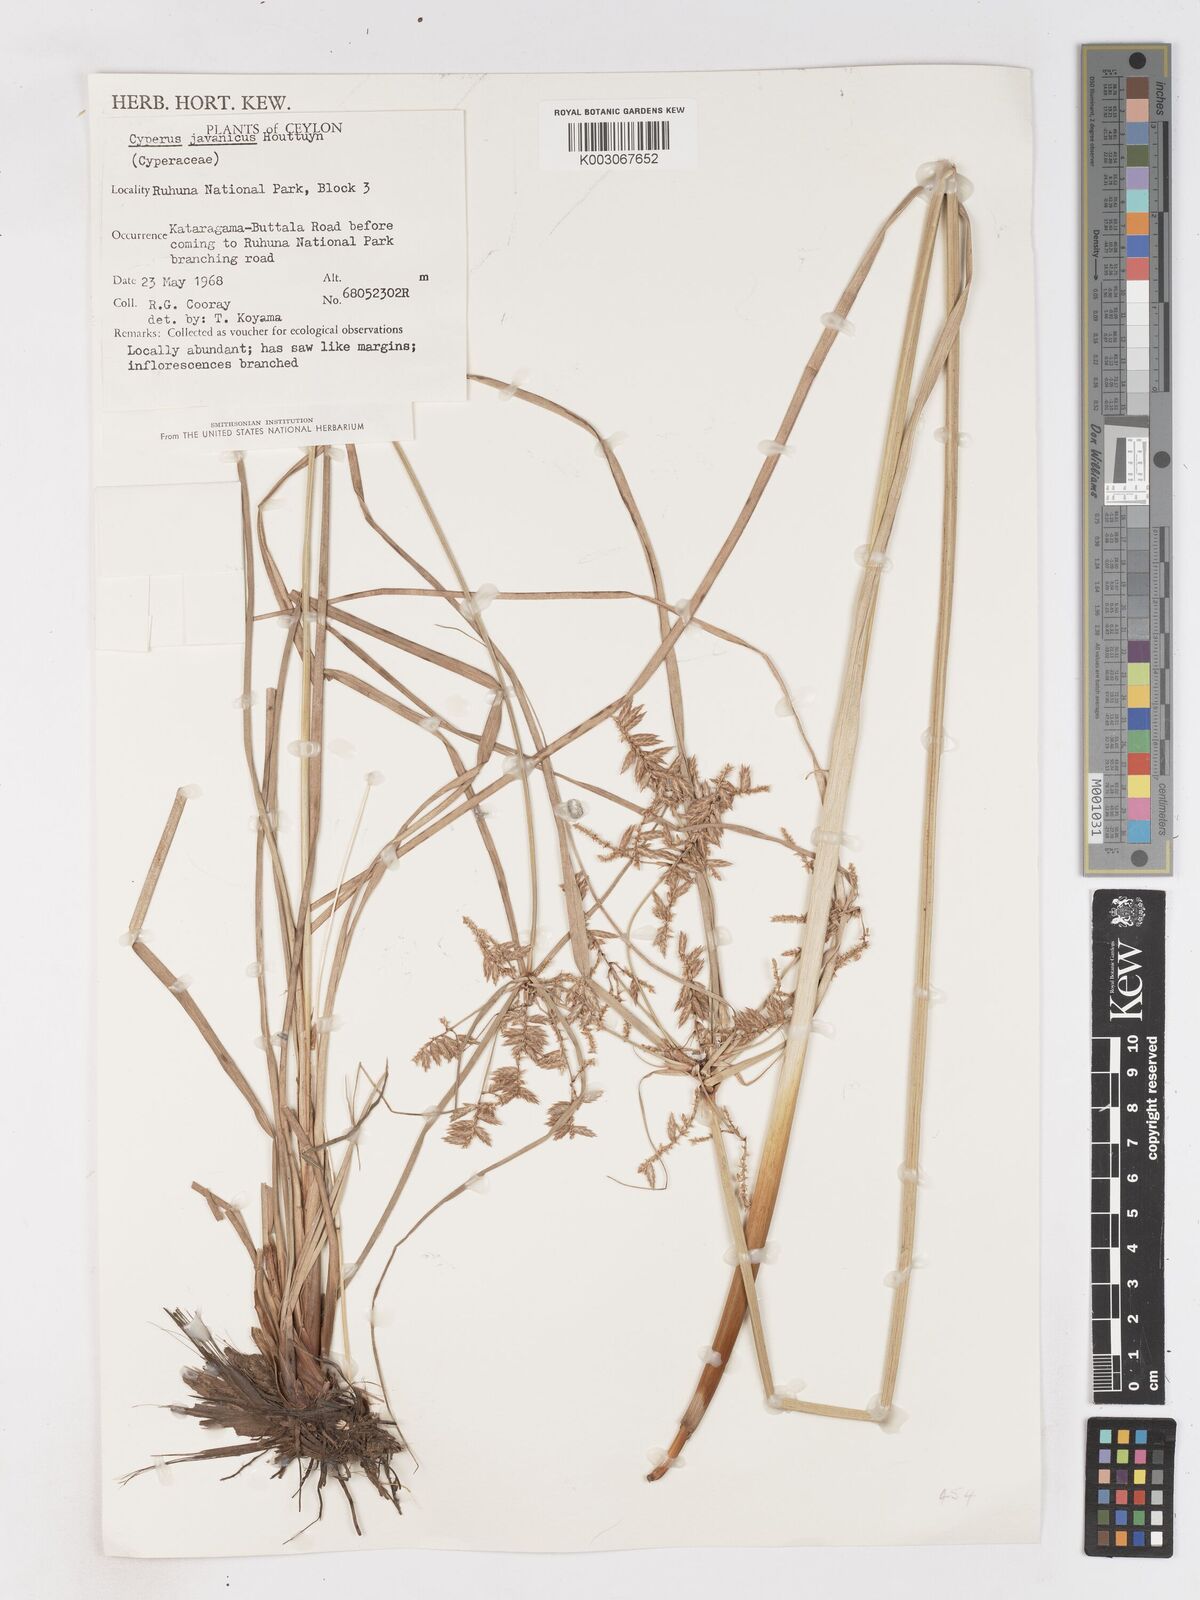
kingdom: Plantae
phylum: Tracheophyta
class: Liliopsida
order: Poales
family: Cyperaceae
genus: Cyperus
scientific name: Cyperus javanicus
